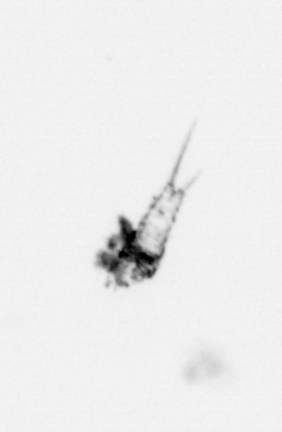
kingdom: Animalia
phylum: Arthropoda
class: Copepoda
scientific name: Copepoda
